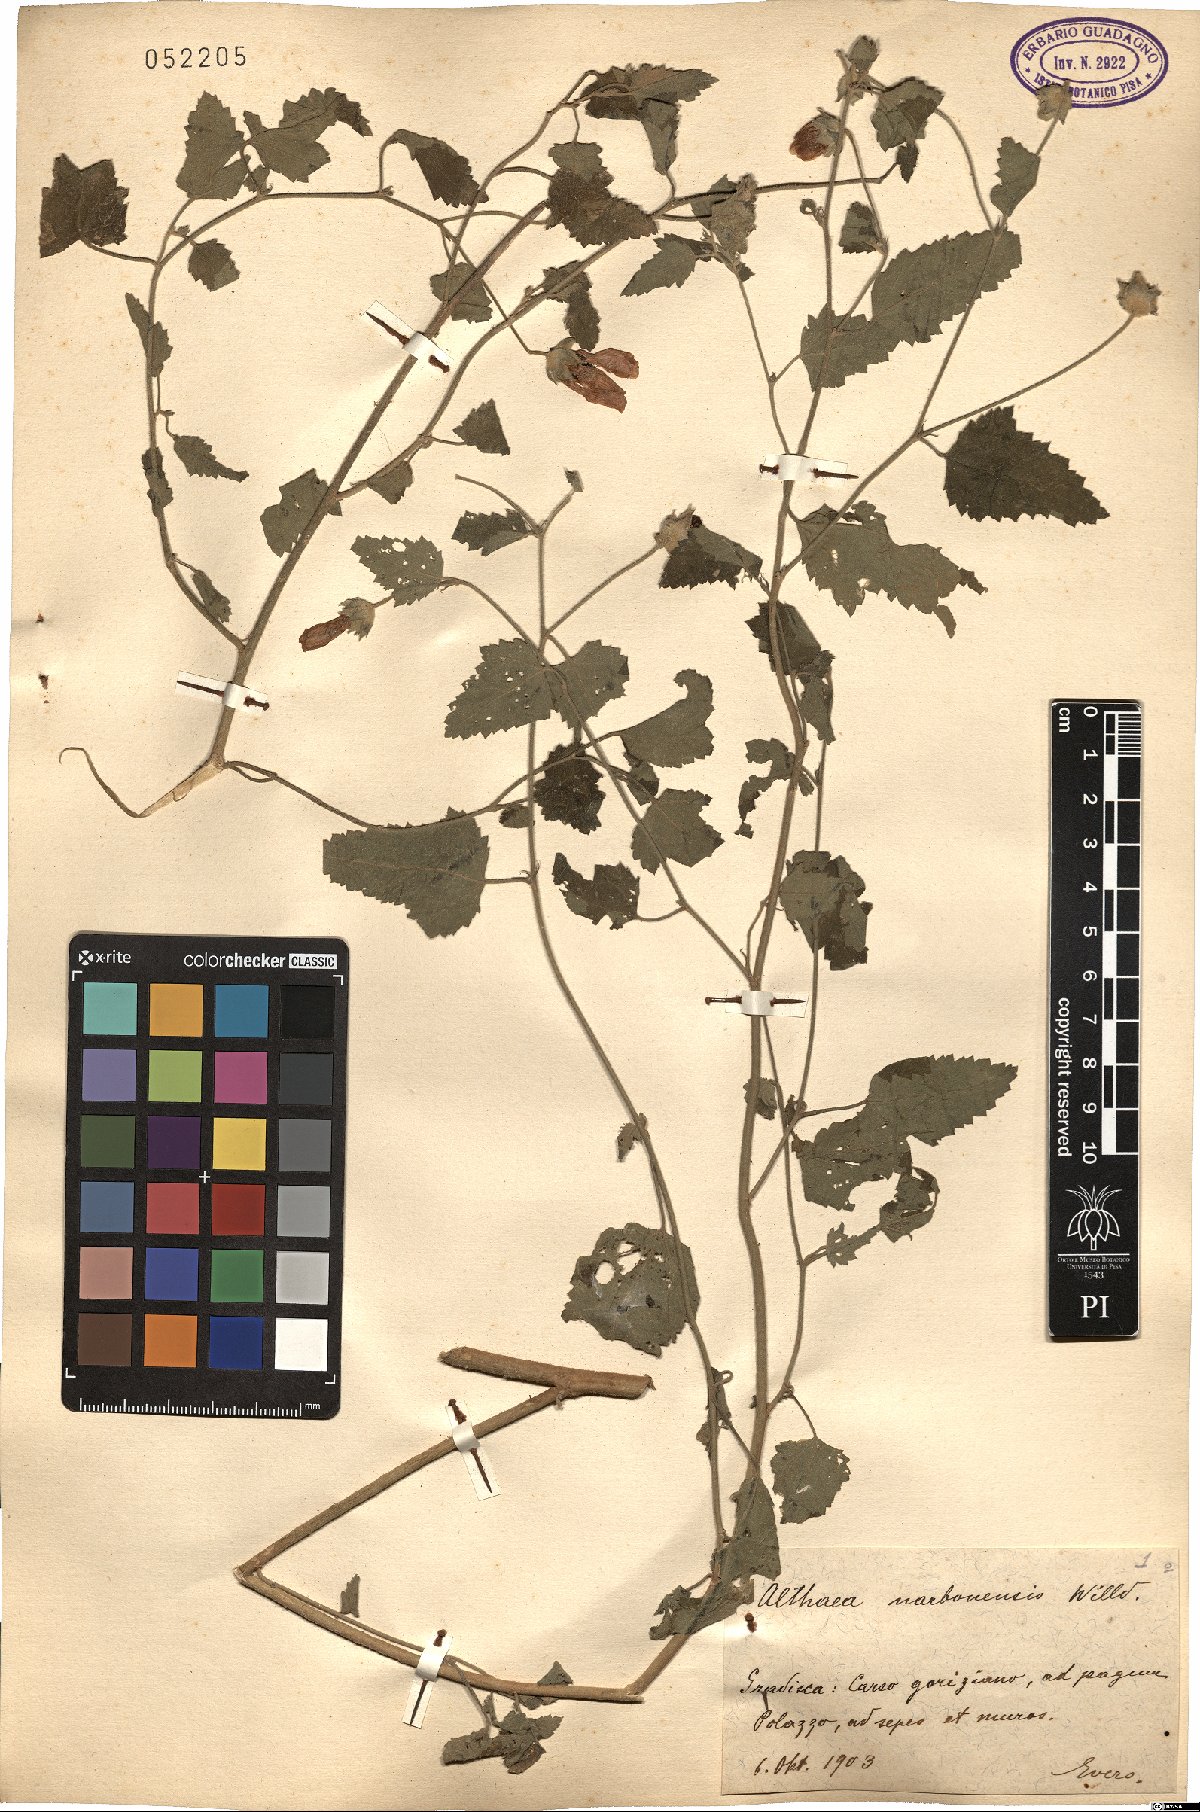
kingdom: Plantae
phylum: Tracheophyta
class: Magnoliopsida
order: Malvales
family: Malvaceae
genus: Althaea
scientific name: Althaea cannabina
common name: Palm-leaf marshmallow
